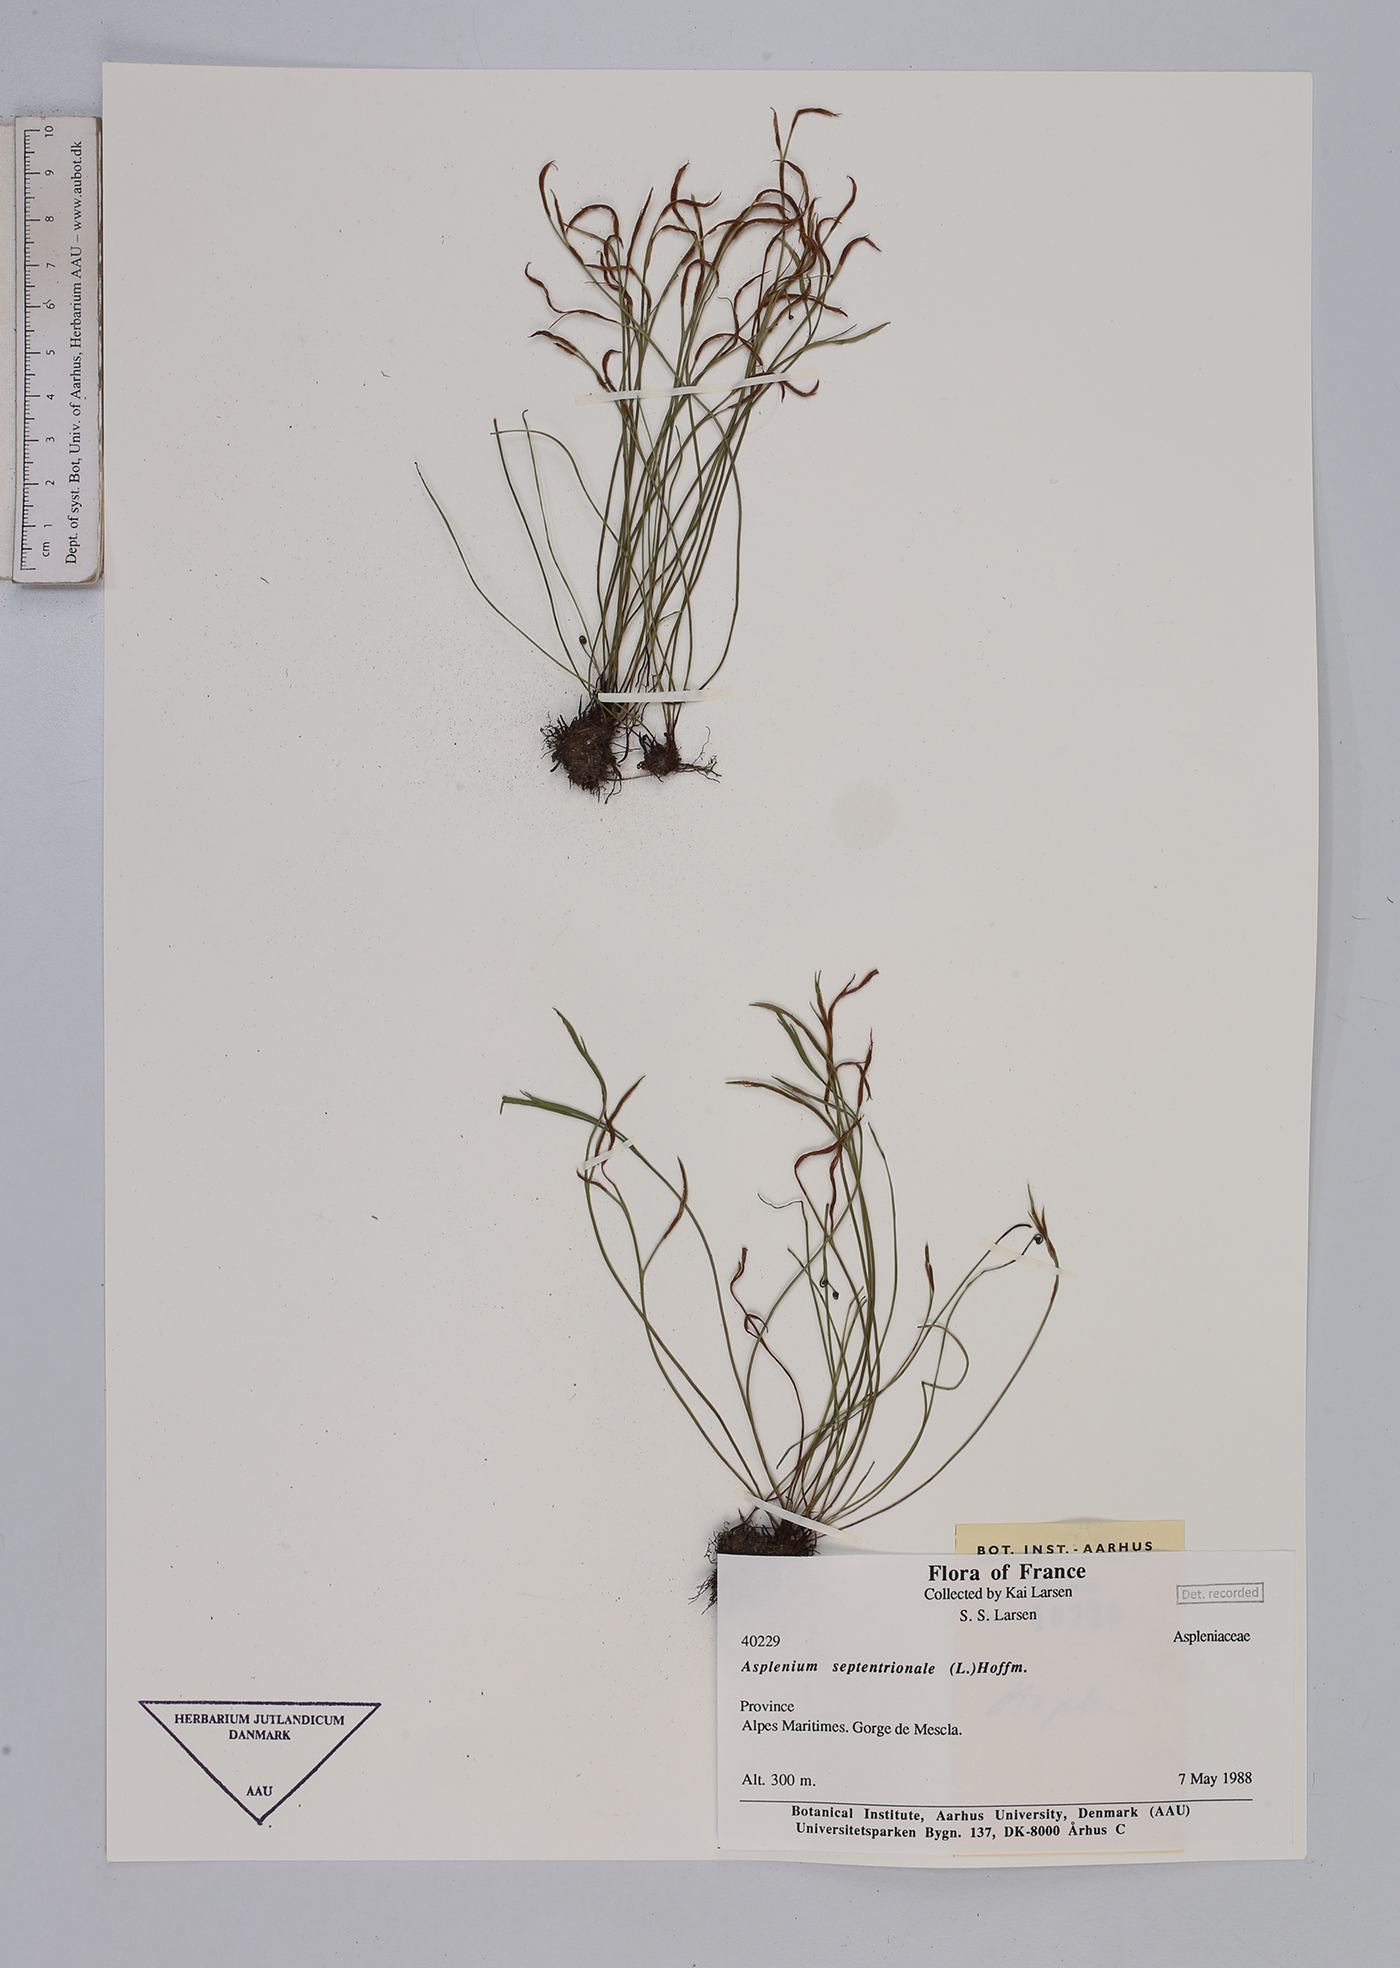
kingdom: Plantae
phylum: Tracheophyta
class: Polypodiopsida
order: Polypodiales
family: Aspleniaceae
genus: Asplenium
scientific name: Asplenium septentrionale
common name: Forked spleenwort
